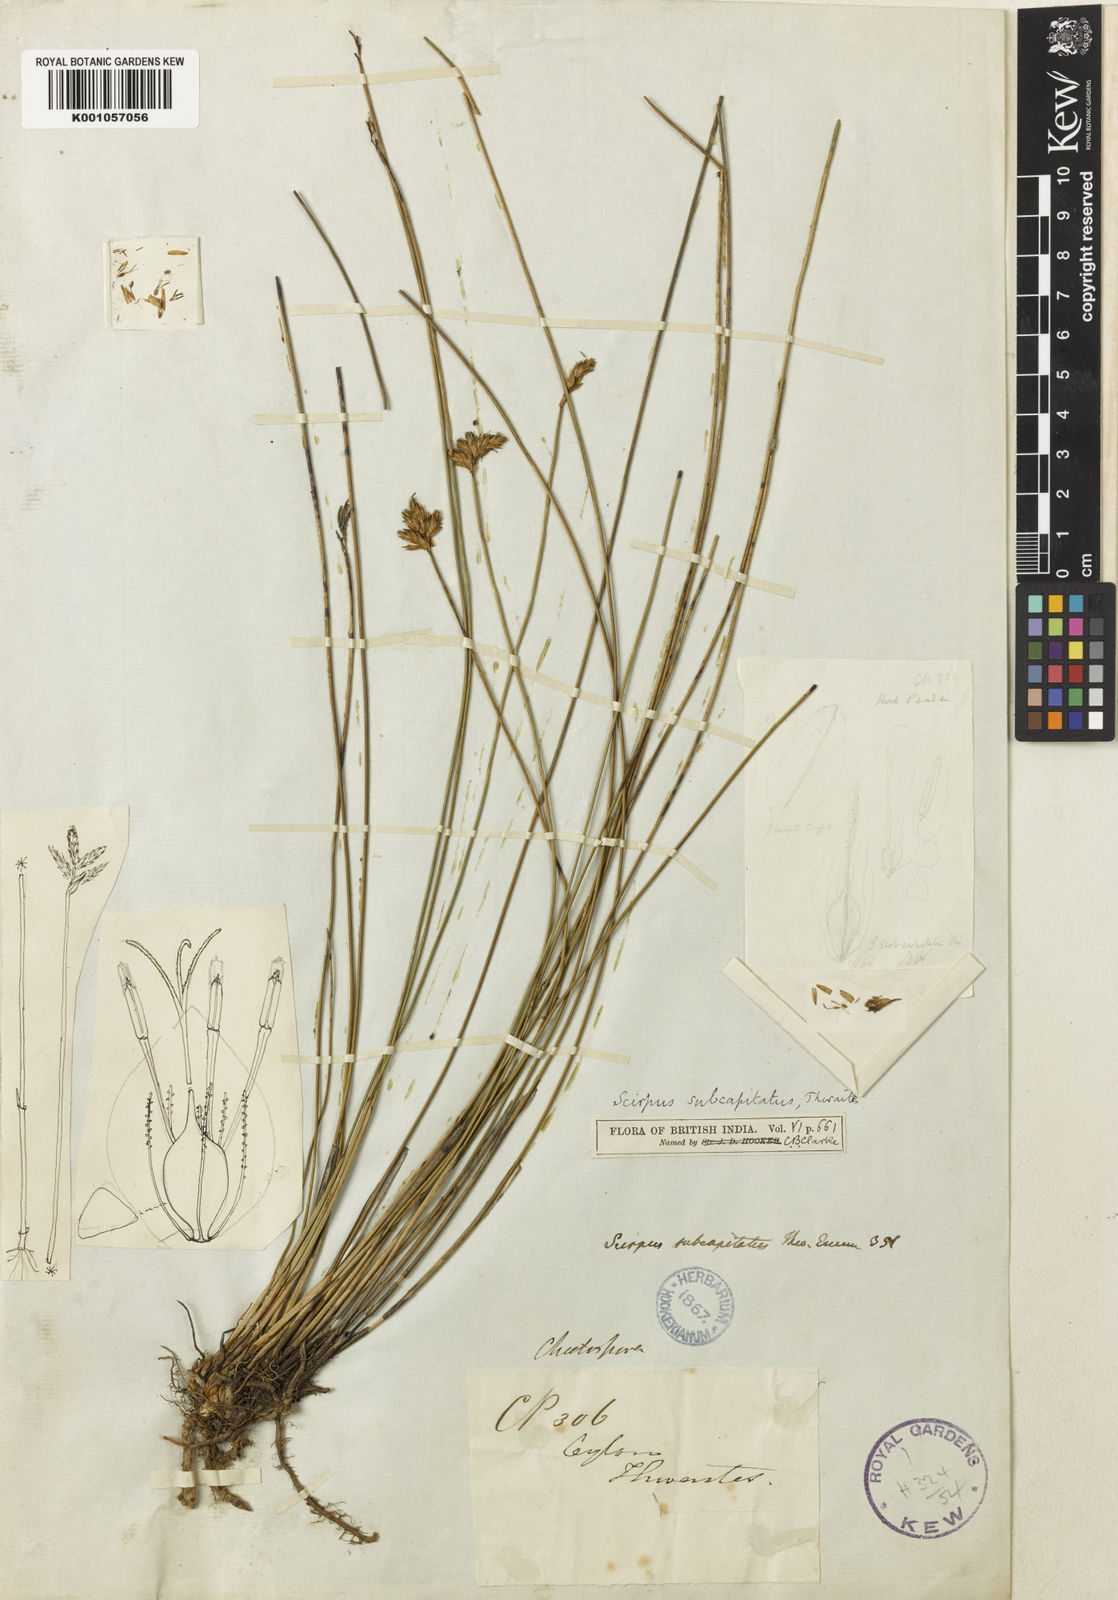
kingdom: Plantae
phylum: Tracheophyta
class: Liliopsida
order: Poales
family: Cyperaceae
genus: Trichophorum
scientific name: Trichophorum subcapitatum
